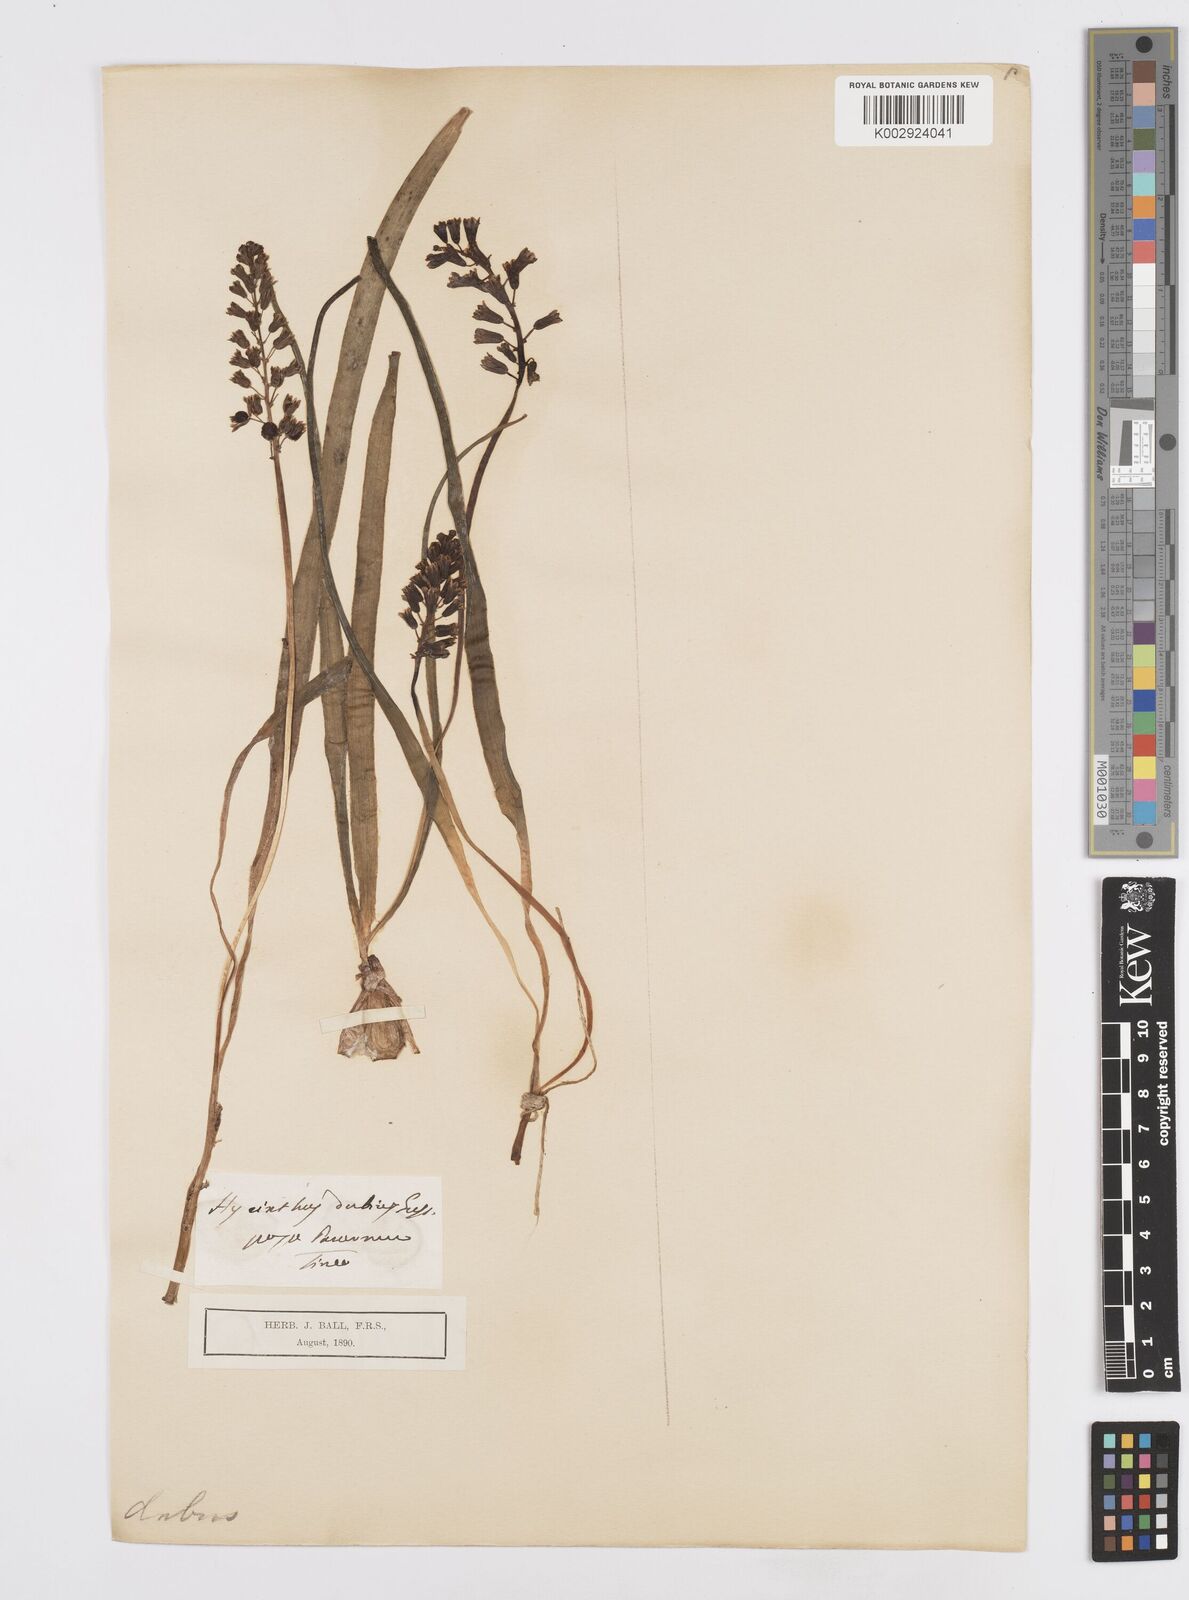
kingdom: Plantae
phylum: Tracheophyta
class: Liliopsida
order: Asparagales
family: Asparagaceae
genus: Bellevalia
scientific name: Bellevalia dubia
